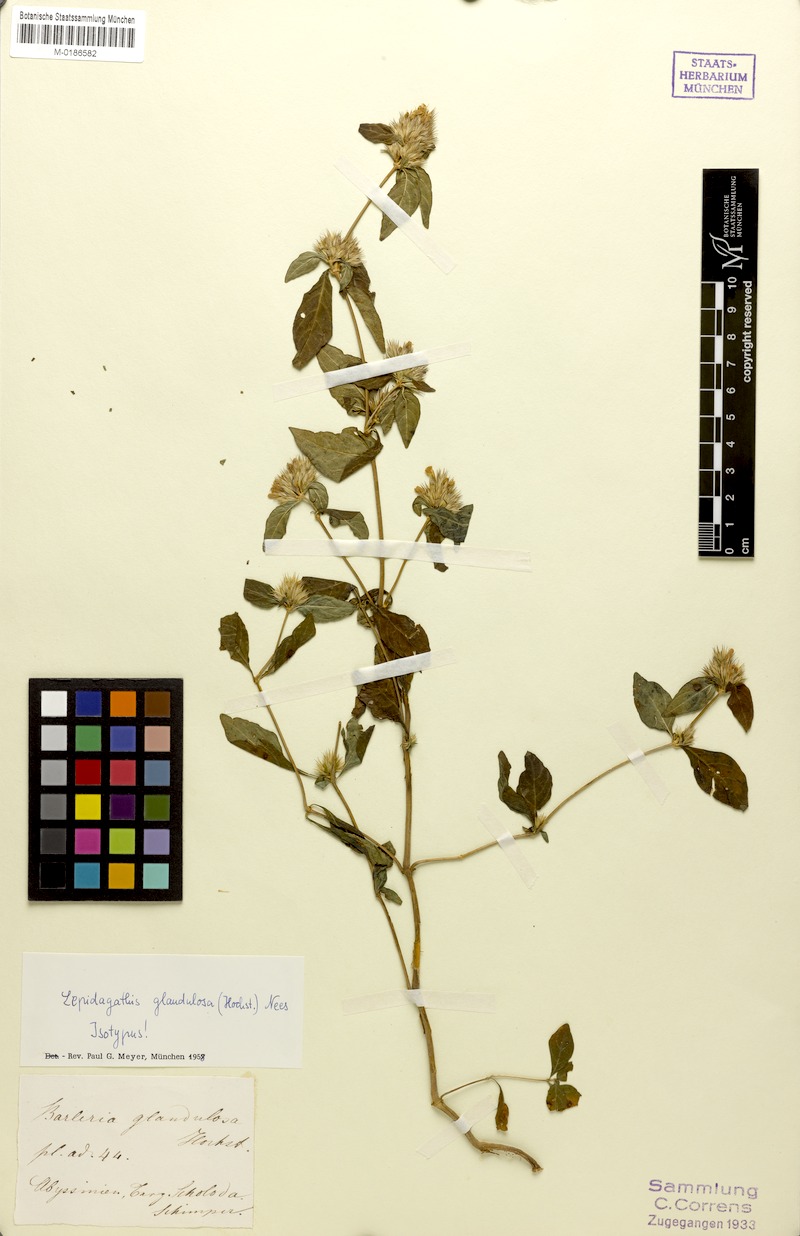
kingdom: Plantae
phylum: Tracheophyta
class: Magnoliopsida
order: Lamiales
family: Acanthaceae
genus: Lepidagathis
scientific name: Lepidagathis glandulosa
